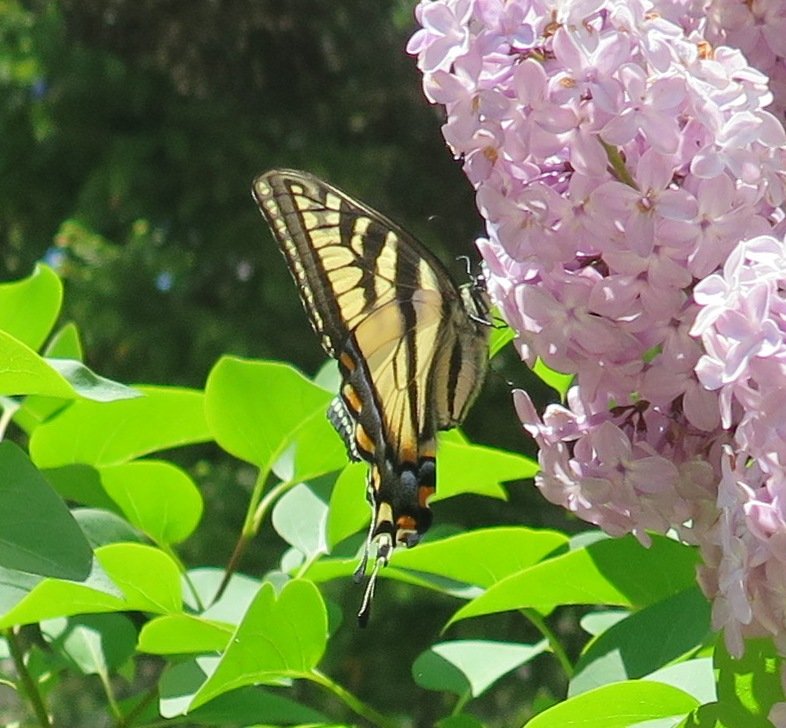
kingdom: Animalia
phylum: Arthropoda
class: Insecta
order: Lepidoptera
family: Papilionidae
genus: Pterourus
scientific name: Pterourus canadensis
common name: Canadian Tiger Swallowtail
